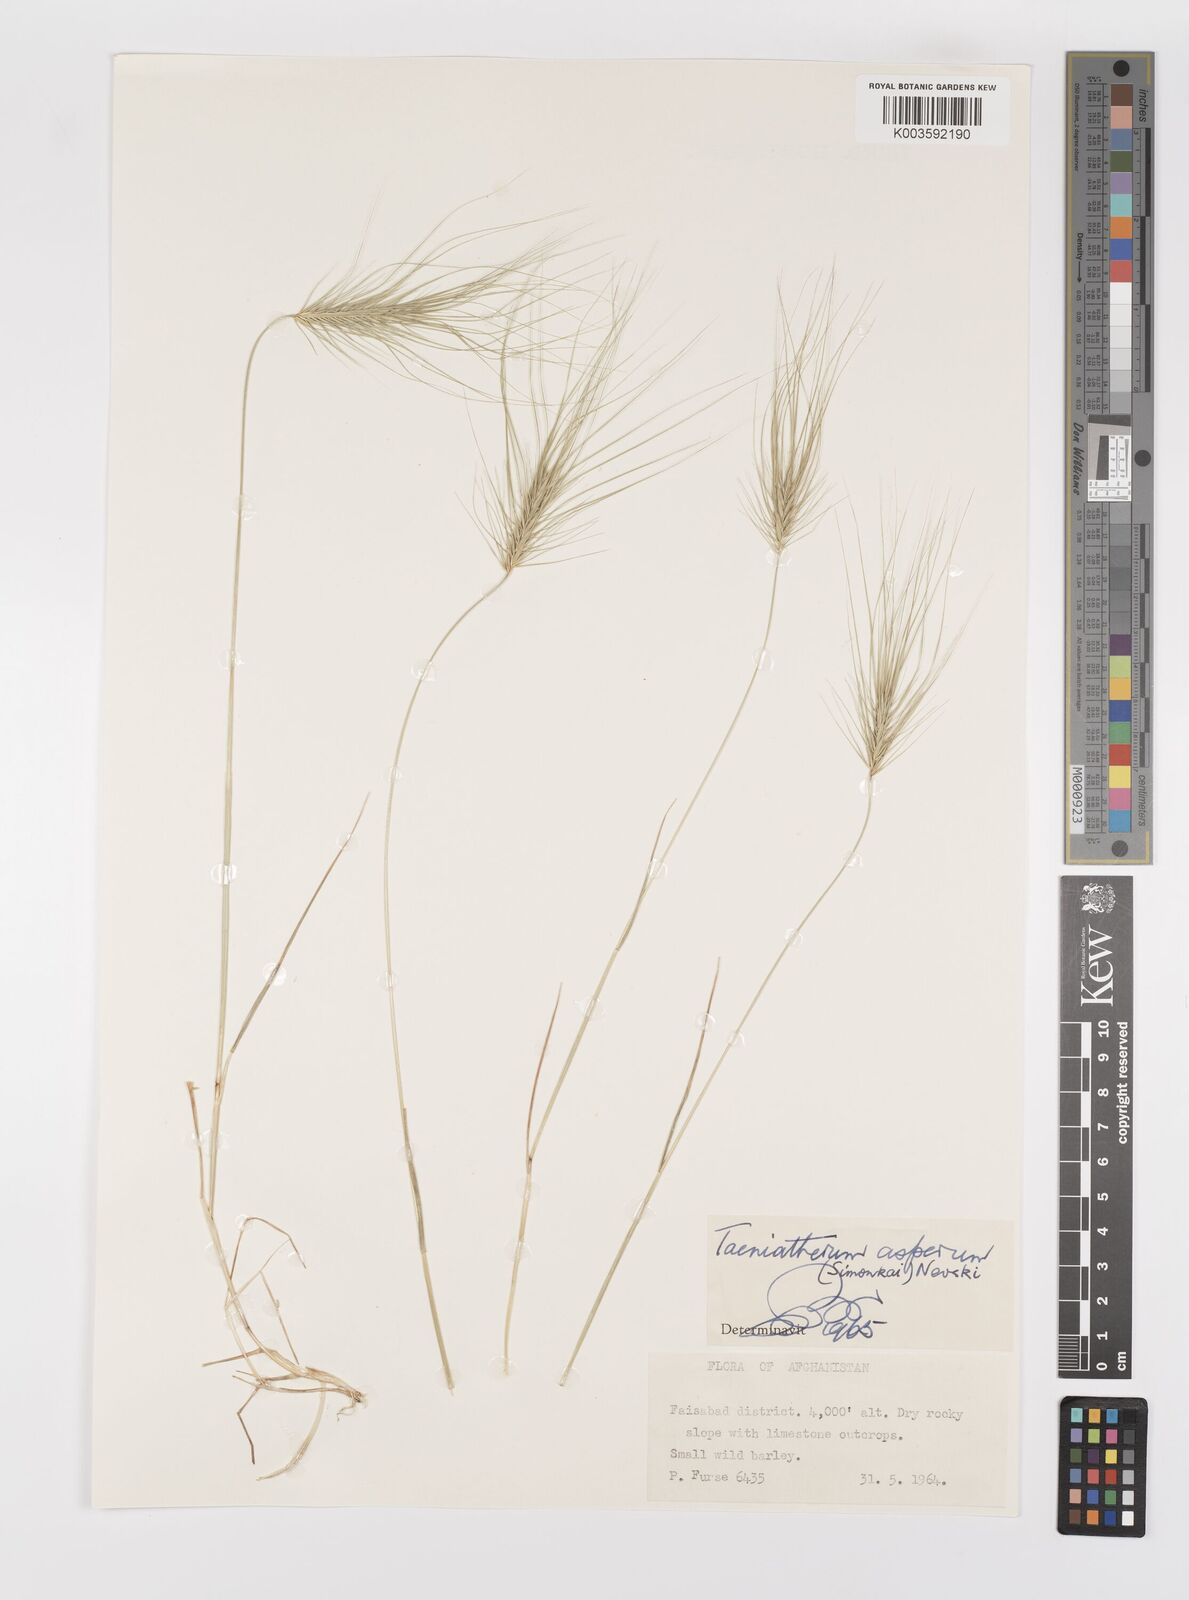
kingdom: Plantae
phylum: Tracheophyta
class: Liliopsida
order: Poales
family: Poaceae
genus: Taeniatherum
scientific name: Taeniatherum caput-medusae
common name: Medusahead
